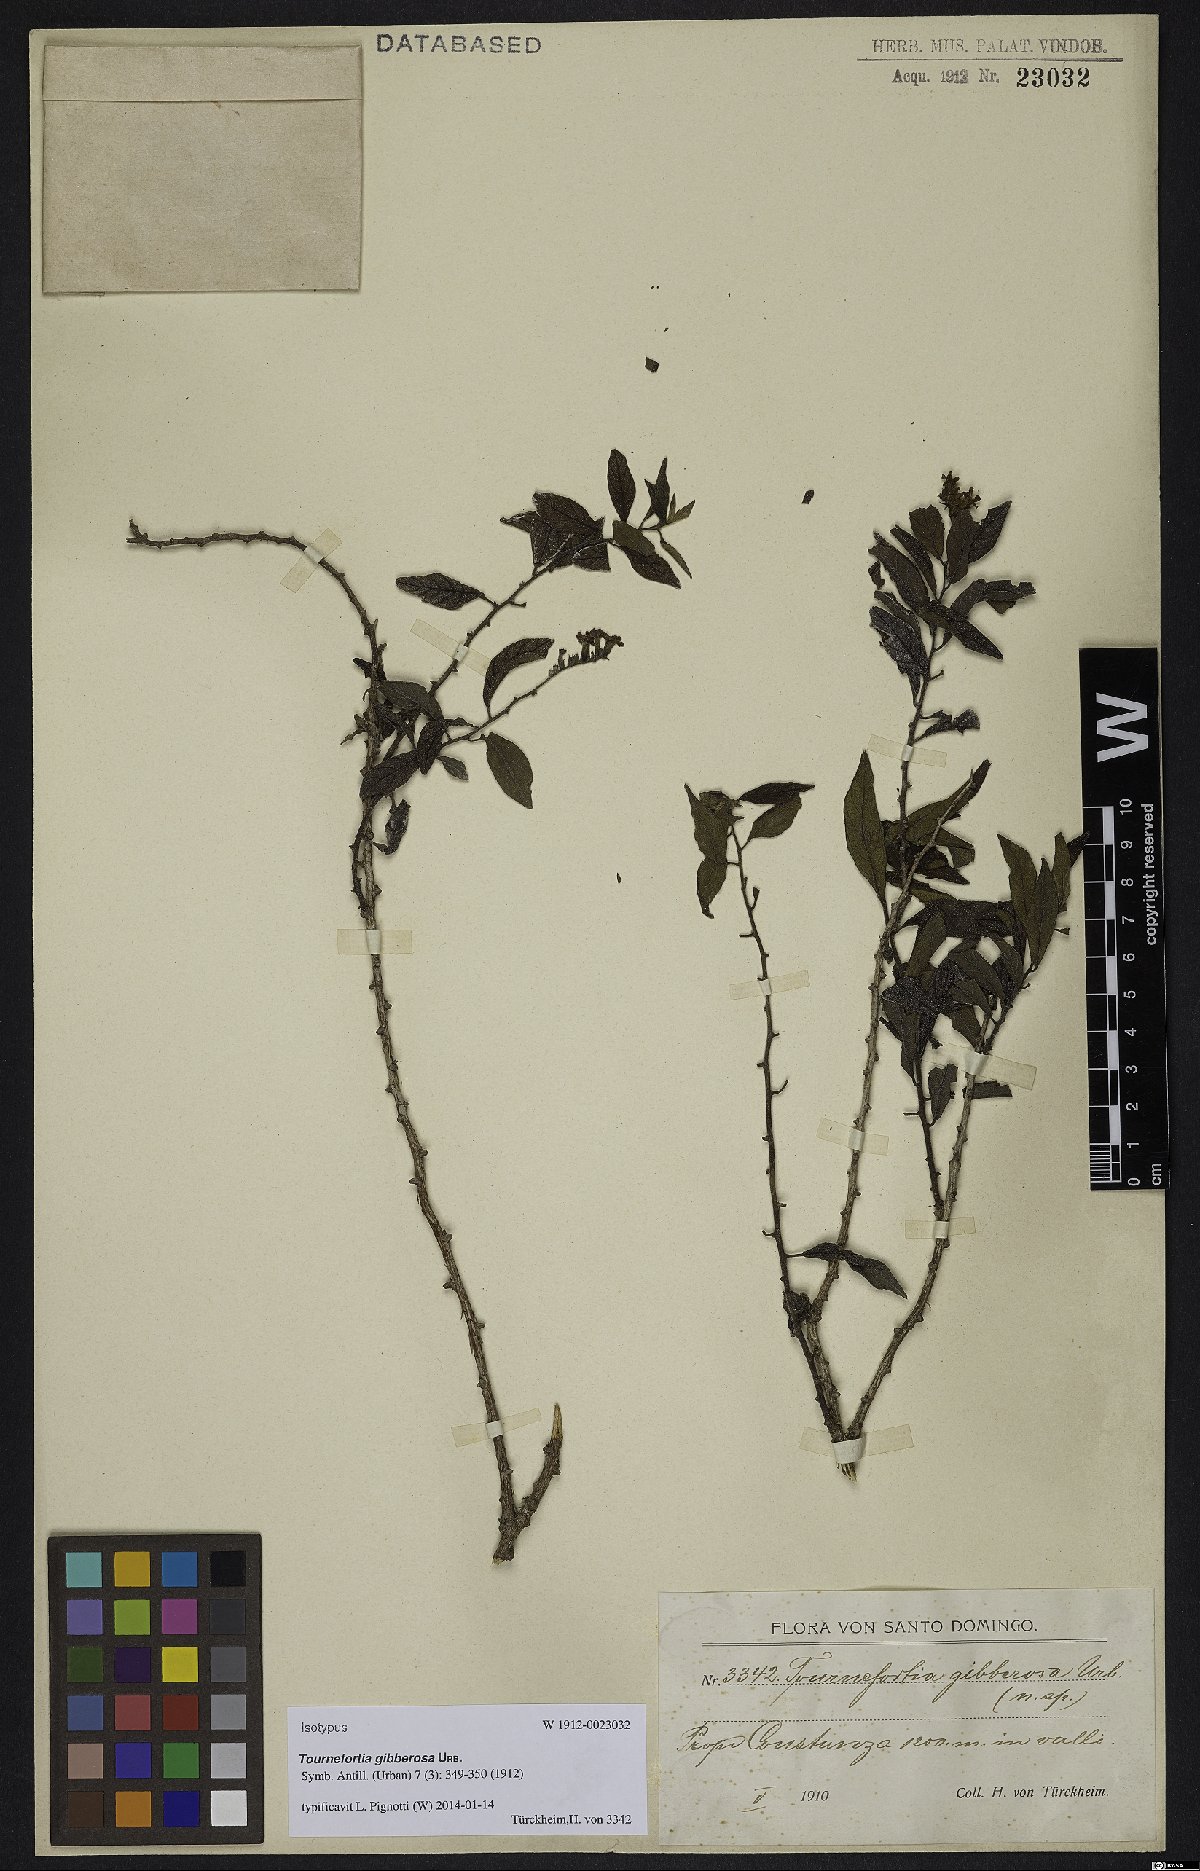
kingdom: Plantae
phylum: Tracheophyta
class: Magnoliopsida
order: Boraginales
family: Heliotropiaceae
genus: Heliotropium
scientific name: Heliotropium gibberosum
